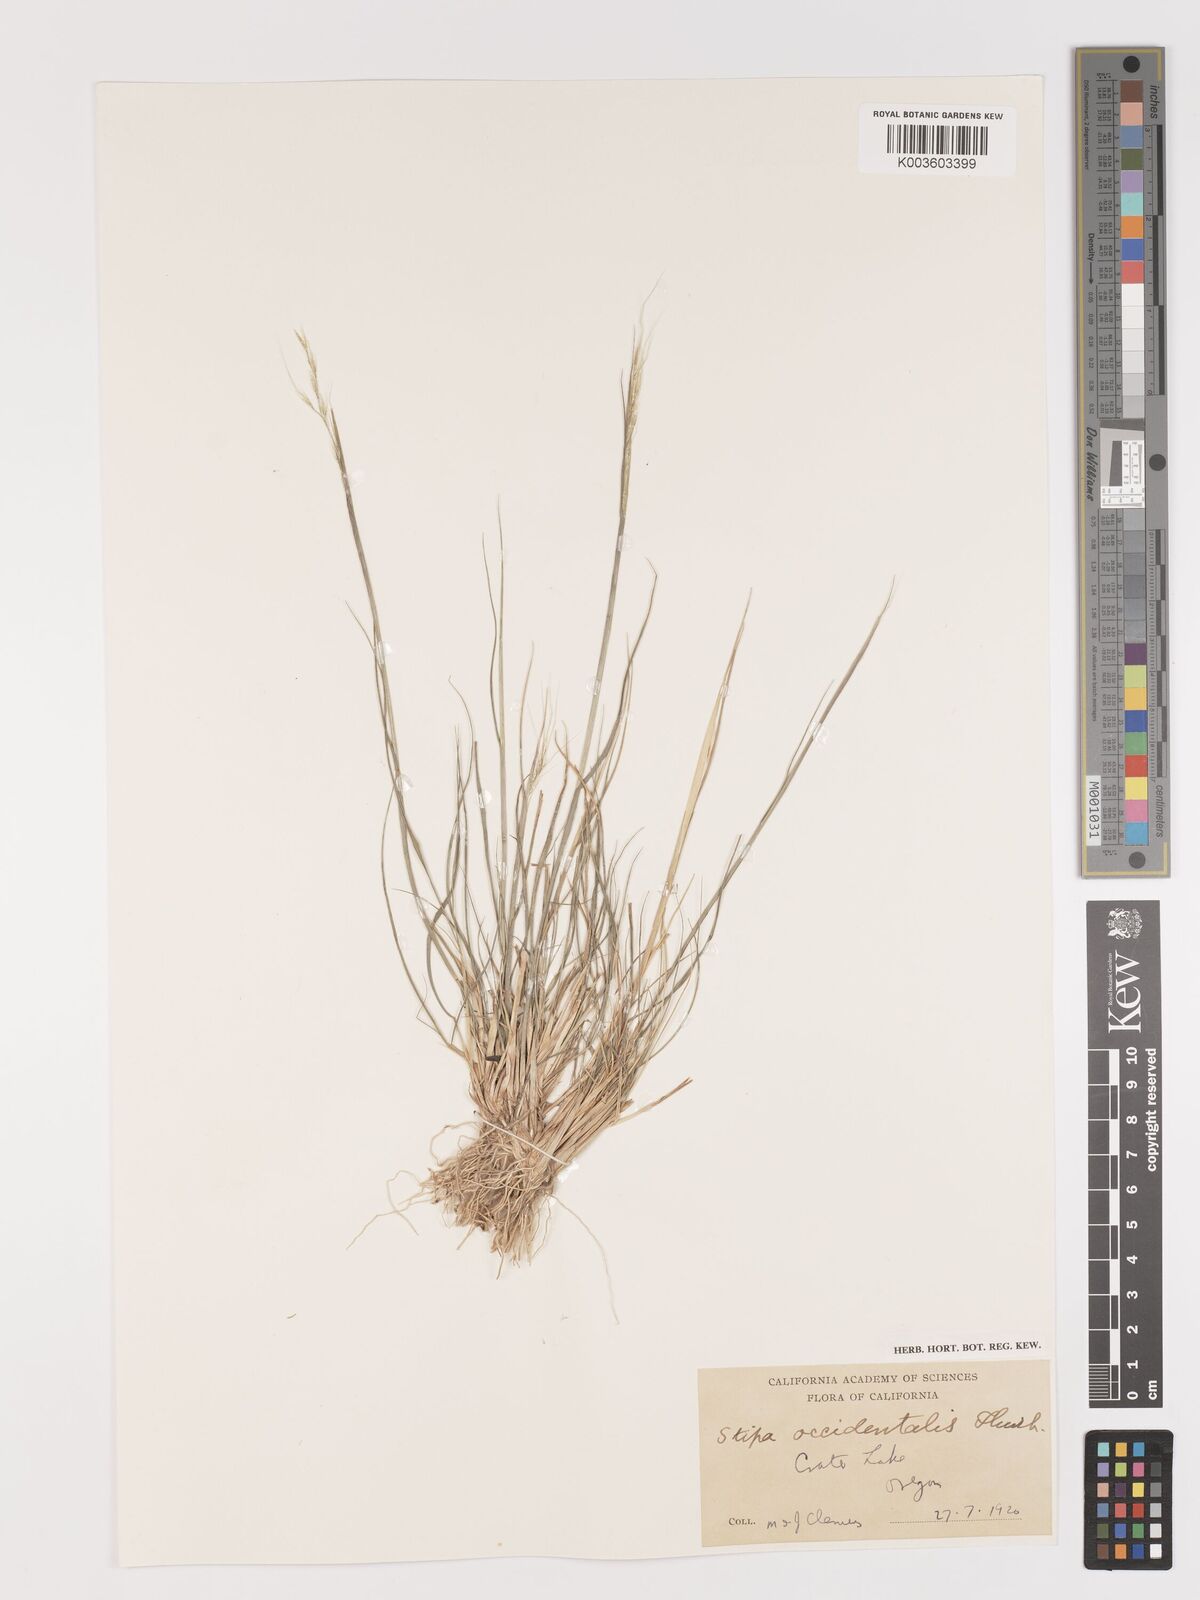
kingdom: Plantae
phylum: Tracheophyta
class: Liliopsida
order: Poales
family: Poaceae
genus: Eriocoma
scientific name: Eriocoma thurberiana
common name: Thurber's needlegrass
